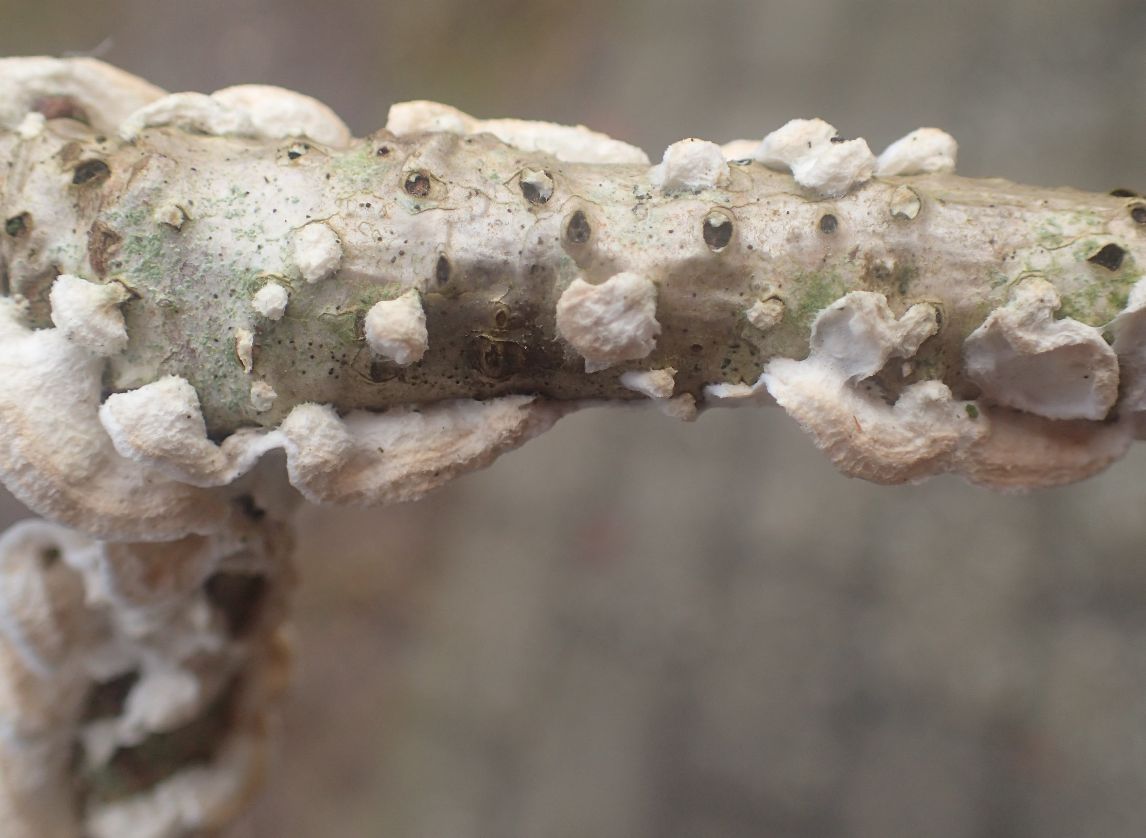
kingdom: Fungi
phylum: Basidiomycota
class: Agaricomycetes
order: Polyporales
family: Irpicaceae
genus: Byssomerulius
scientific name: Byssomerulius corium
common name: læder-åresvamp
